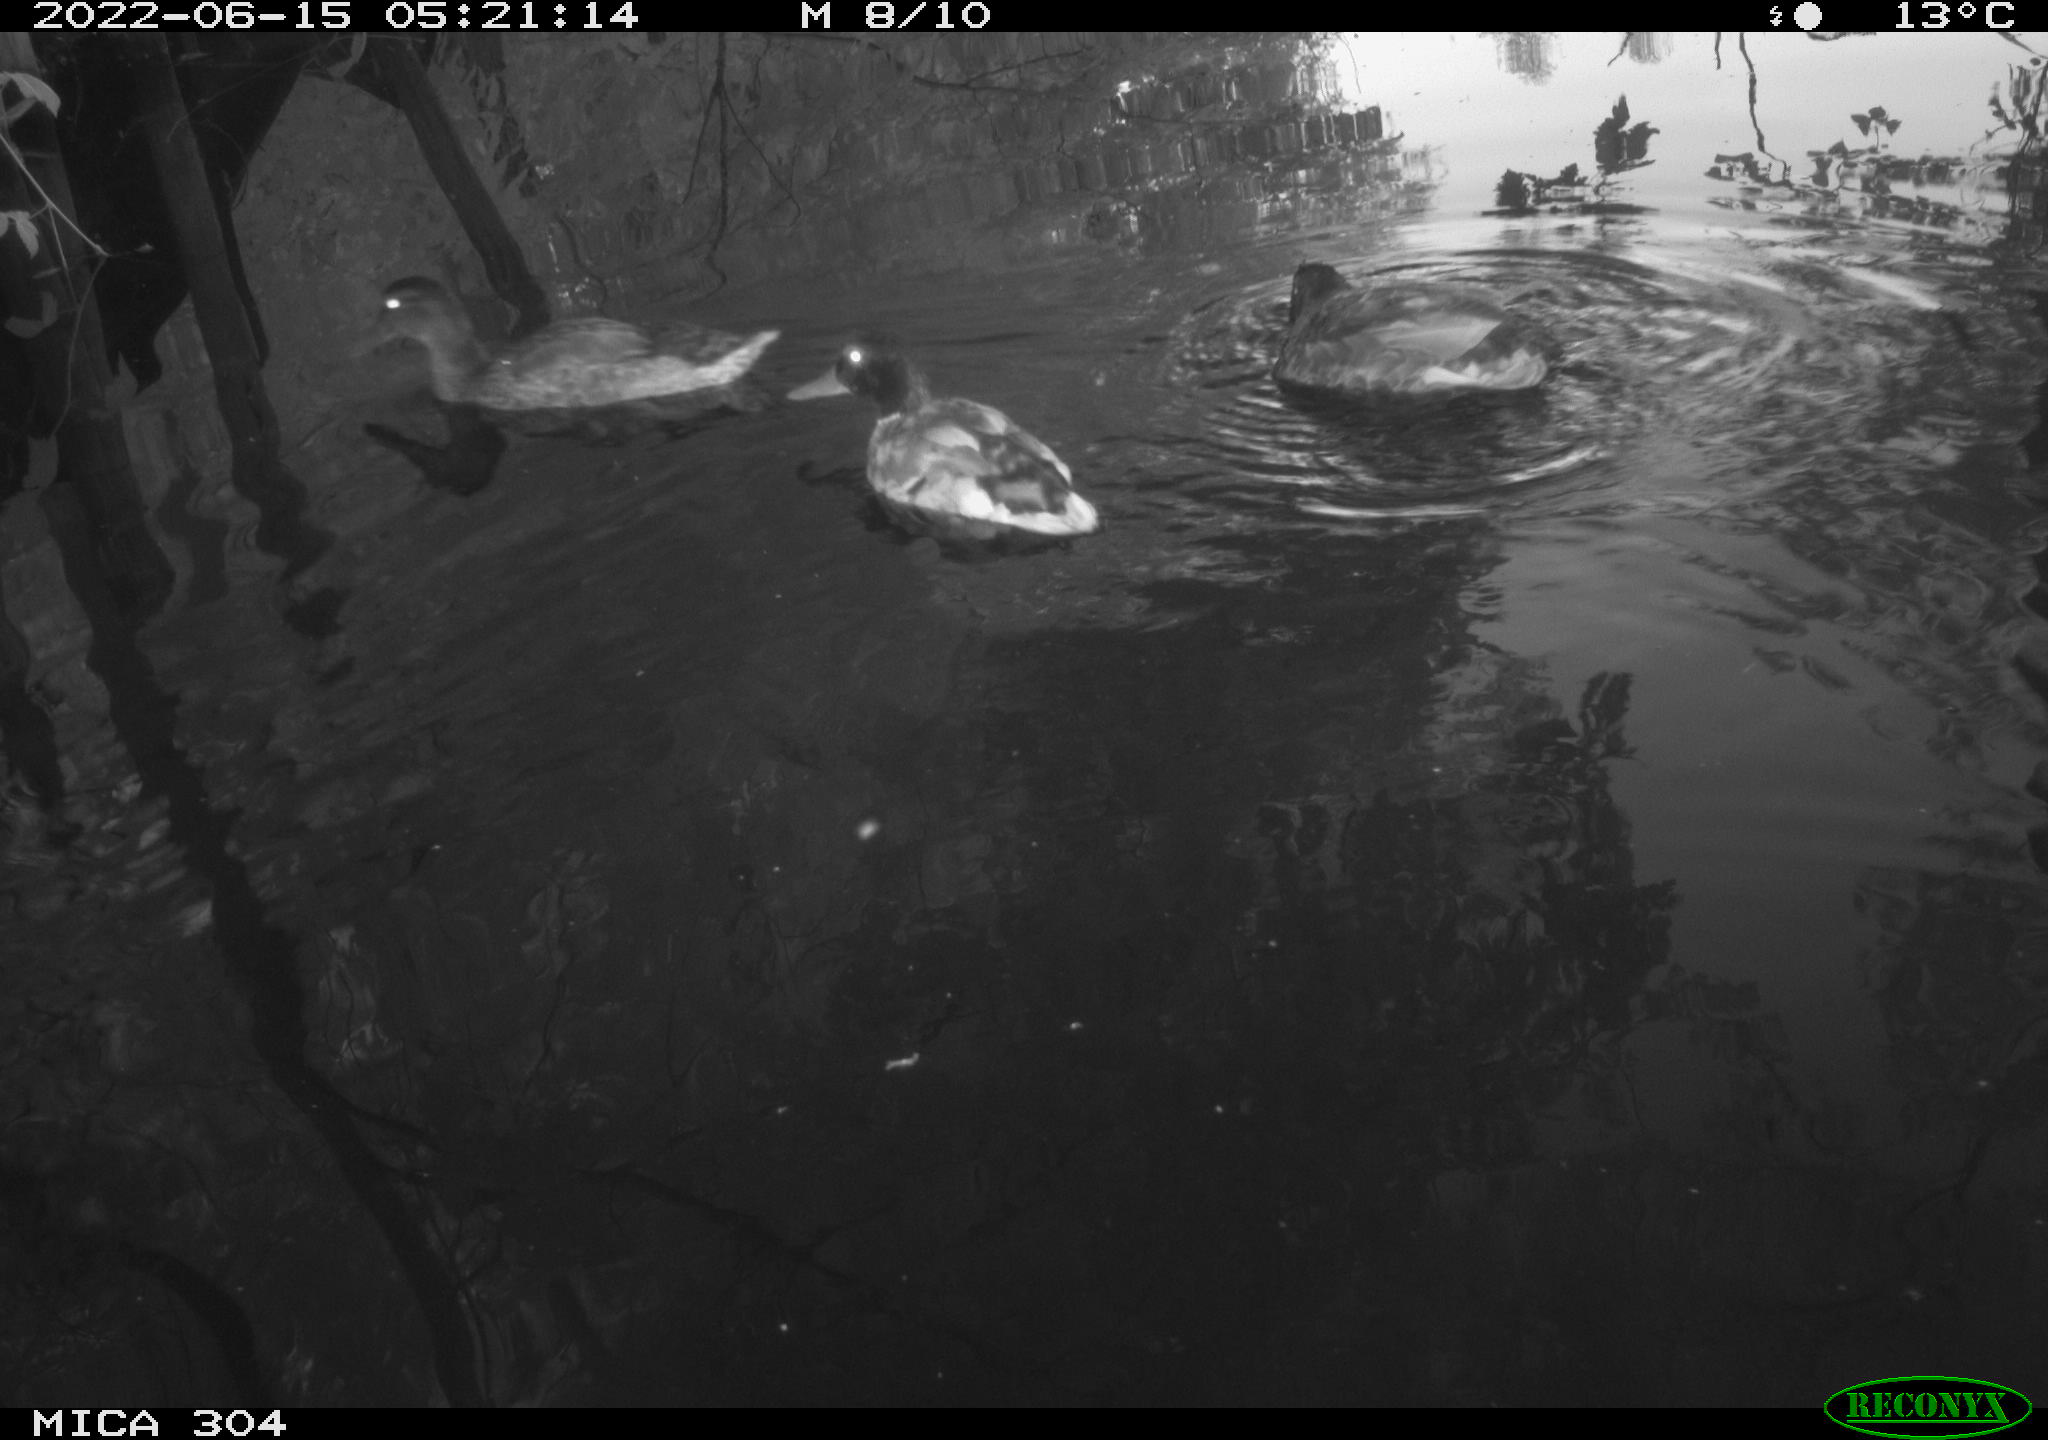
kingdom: Animalia
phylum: Chordata
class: Aves
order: Anseriformes
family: Anatidae
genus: Mareca
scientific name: Mareca strepera
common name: Gadwall
